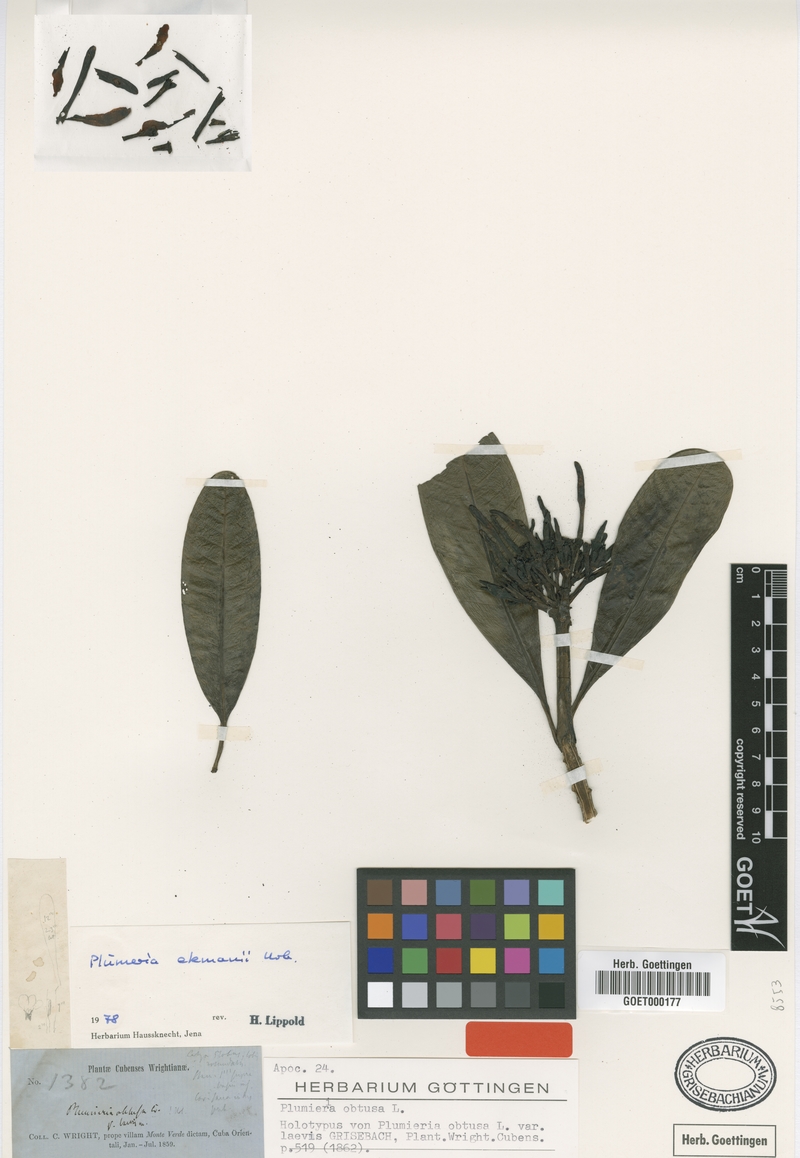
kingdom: Plantae
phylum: Tracheophyta
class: Magnoliopsida
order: Gentianales
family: Apocynaceae
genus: Plumeria
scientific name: Plumeria ekmanii
